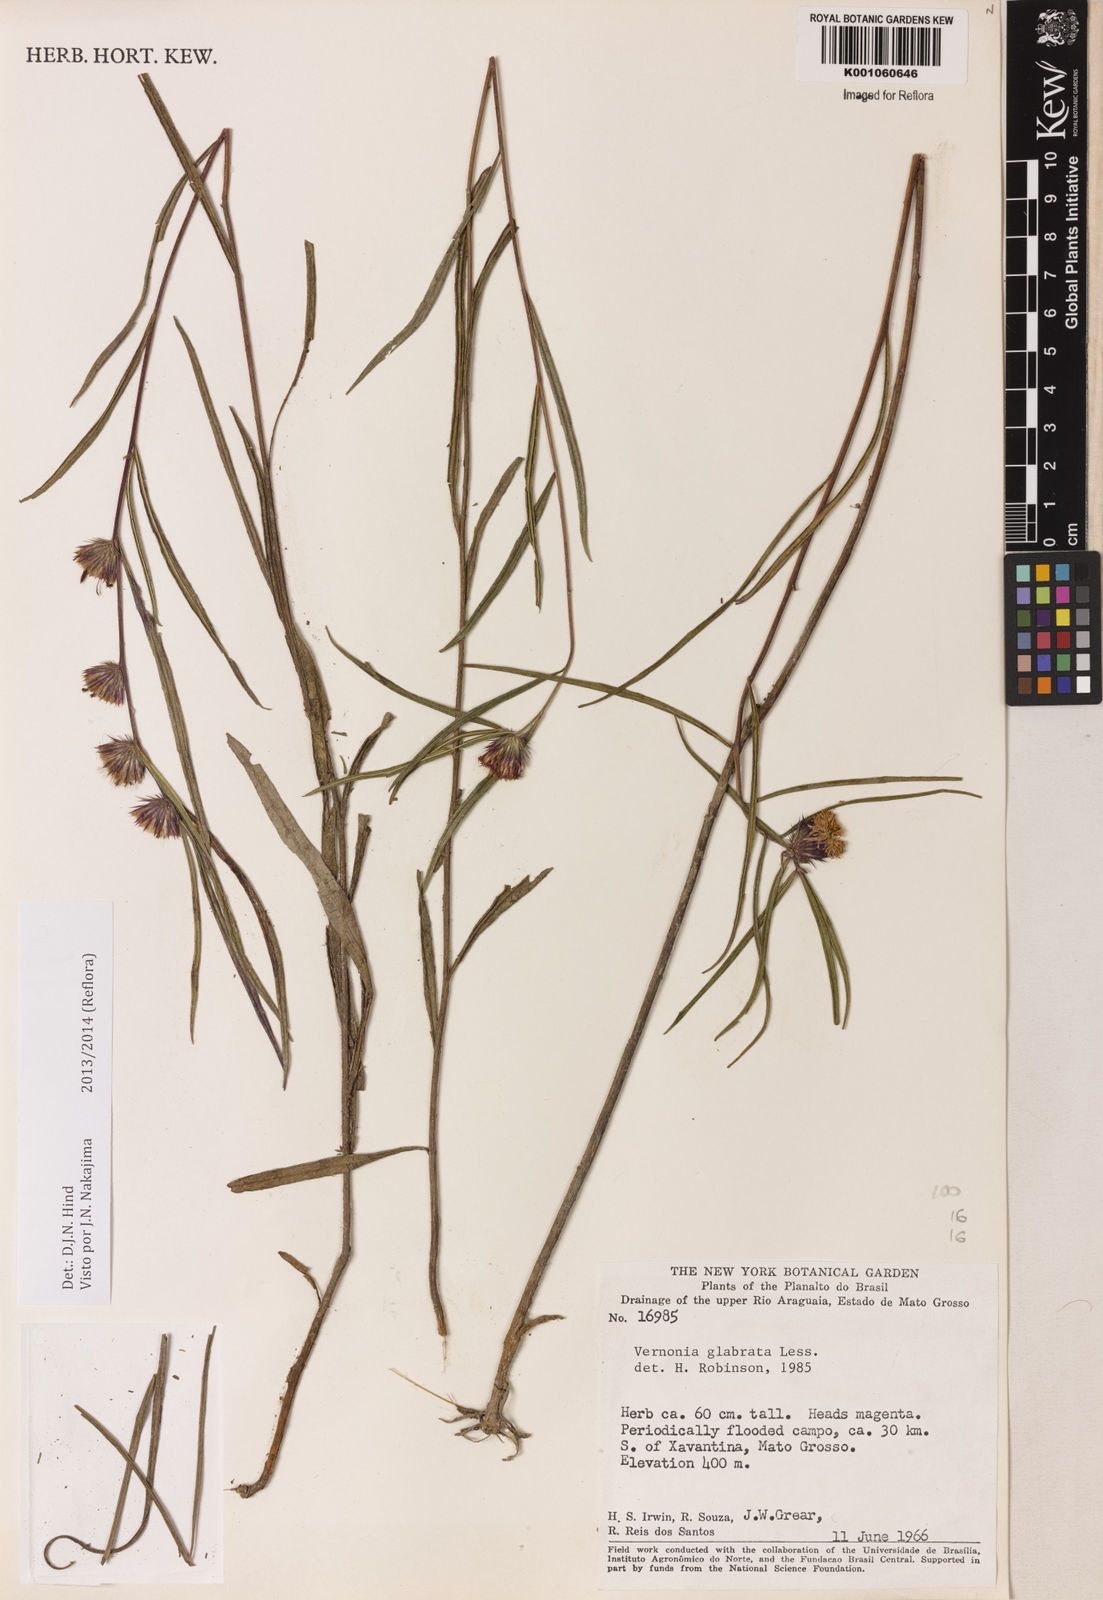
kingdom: Plantae
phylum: Tracheophyta
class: Magnoliopsida
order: Asterales
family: Asteraceae
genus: Lessingianthus
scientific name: Lessingianthus glabratus
